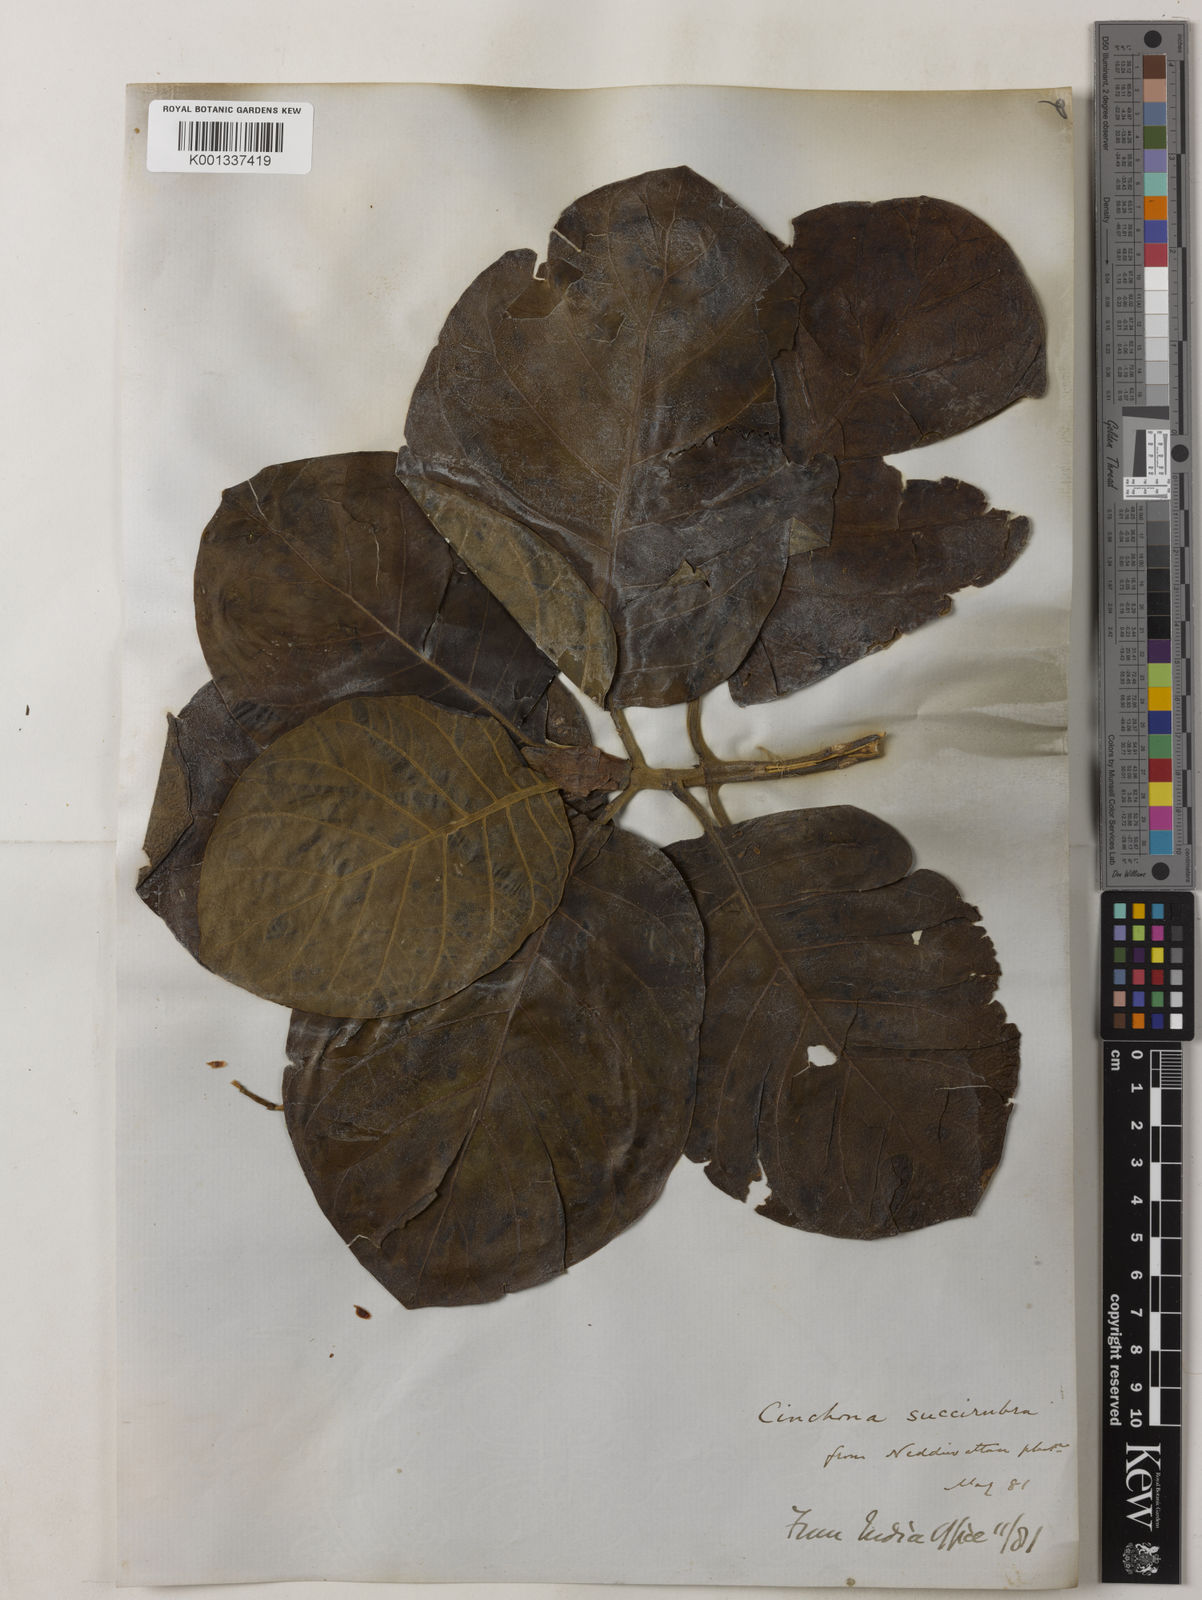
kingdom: Plantae
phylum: Tracheophyta
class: Magnoliopsida
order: Gentianales
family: Rubiaceae
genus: Cinchona
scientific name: Cinchona pubescens
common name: Quinine
